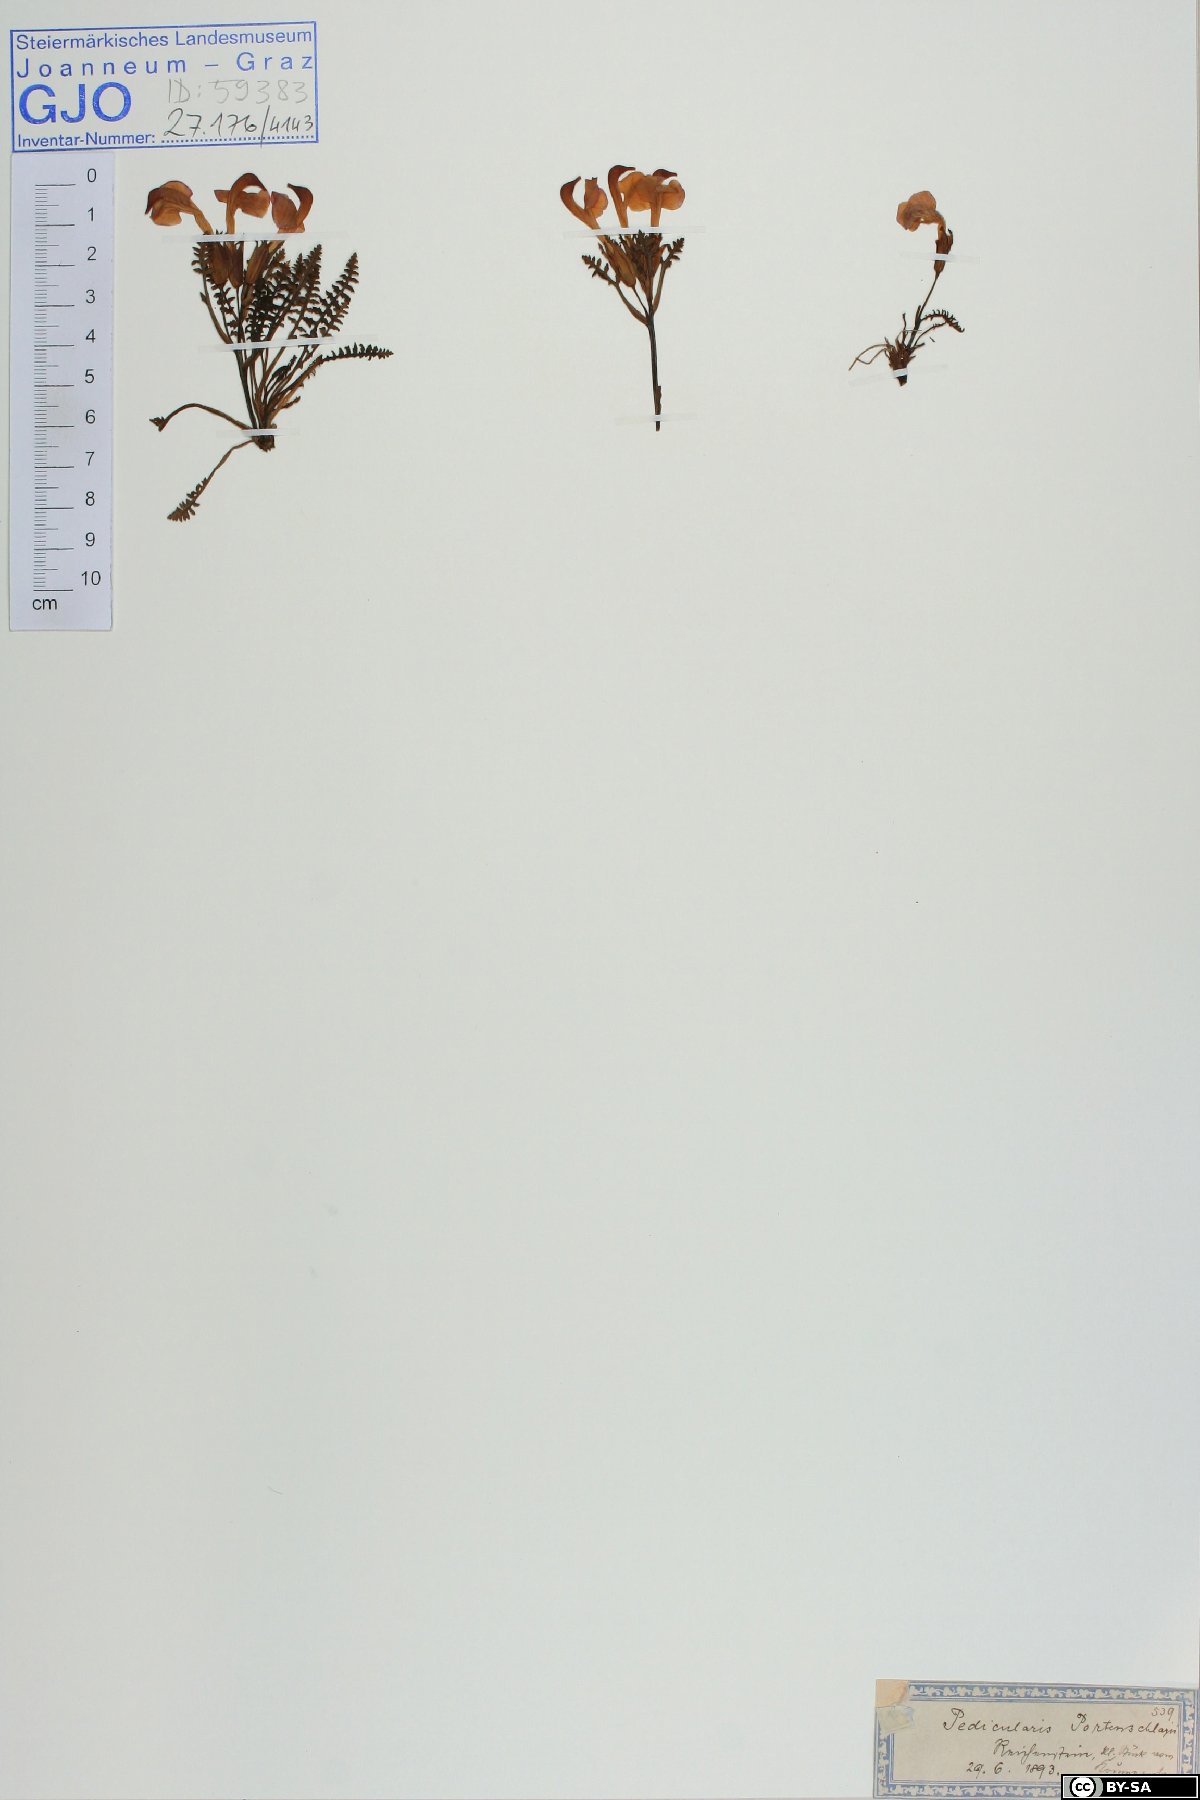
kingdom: Plantae
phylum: Tracheophyta
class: Magnoliopsida
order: Lamiales
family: Orobanchaceae
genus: Pedicularis
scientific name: Pedicularis portenschlagii
